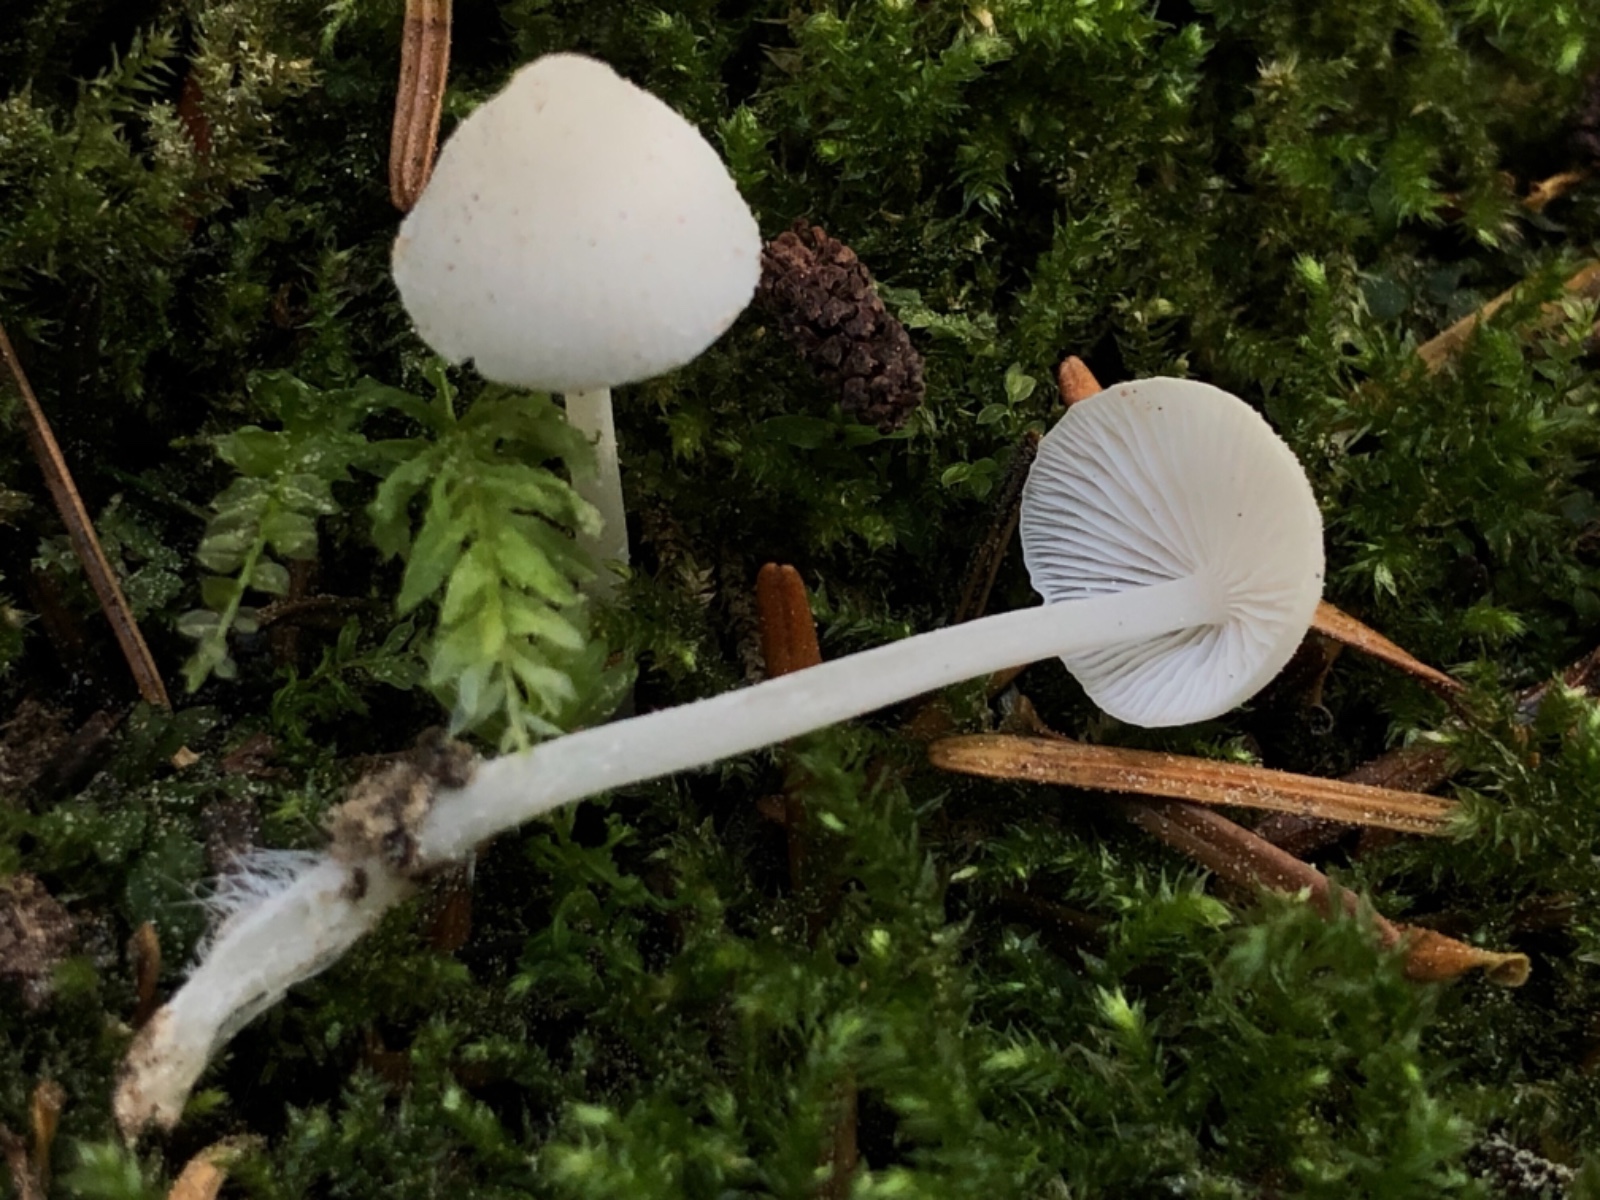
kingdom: Fungi
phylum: Basidiomycota
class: Agaricomycetes
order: Agaricales
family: Mycenaceae
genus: Hemimycena
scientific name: Hemimycena cucullata
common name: tætbladet huesvamp
